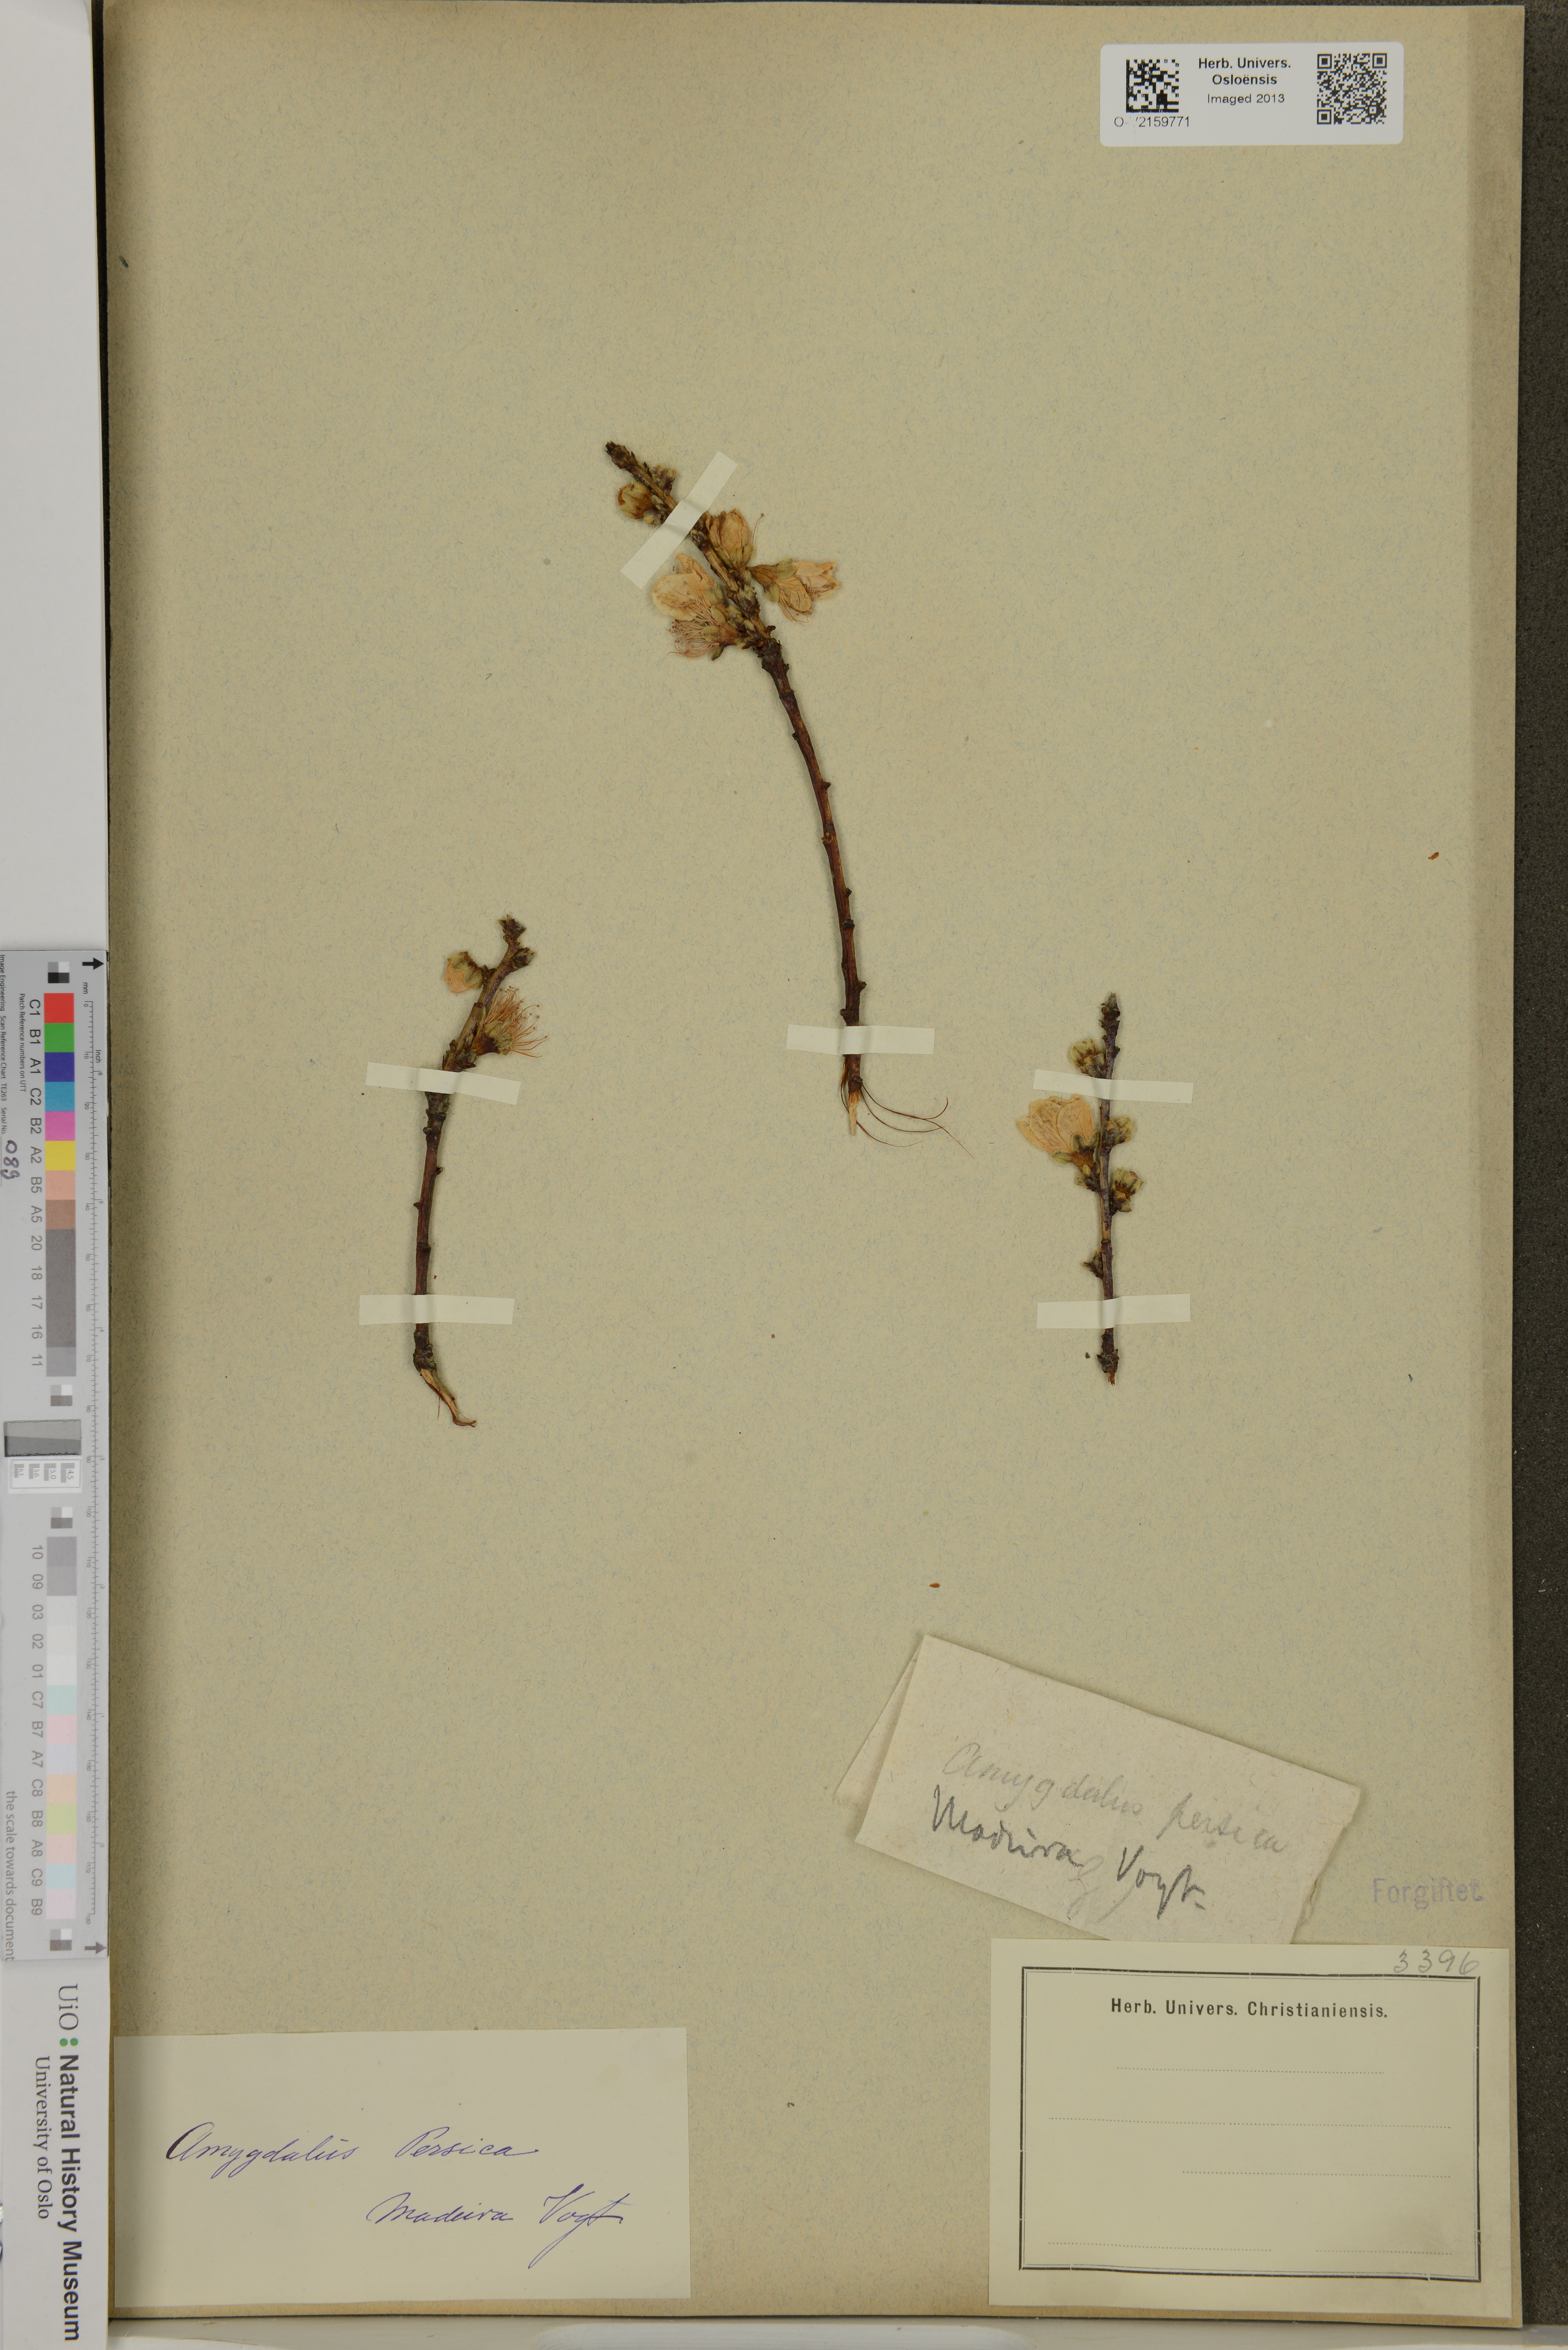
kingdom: Plantae
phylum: Tracheophyta
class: Magnoliopsida
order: Rosales
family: Rosaceae
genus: Prunus
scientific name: Prunus persica
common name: Peach
